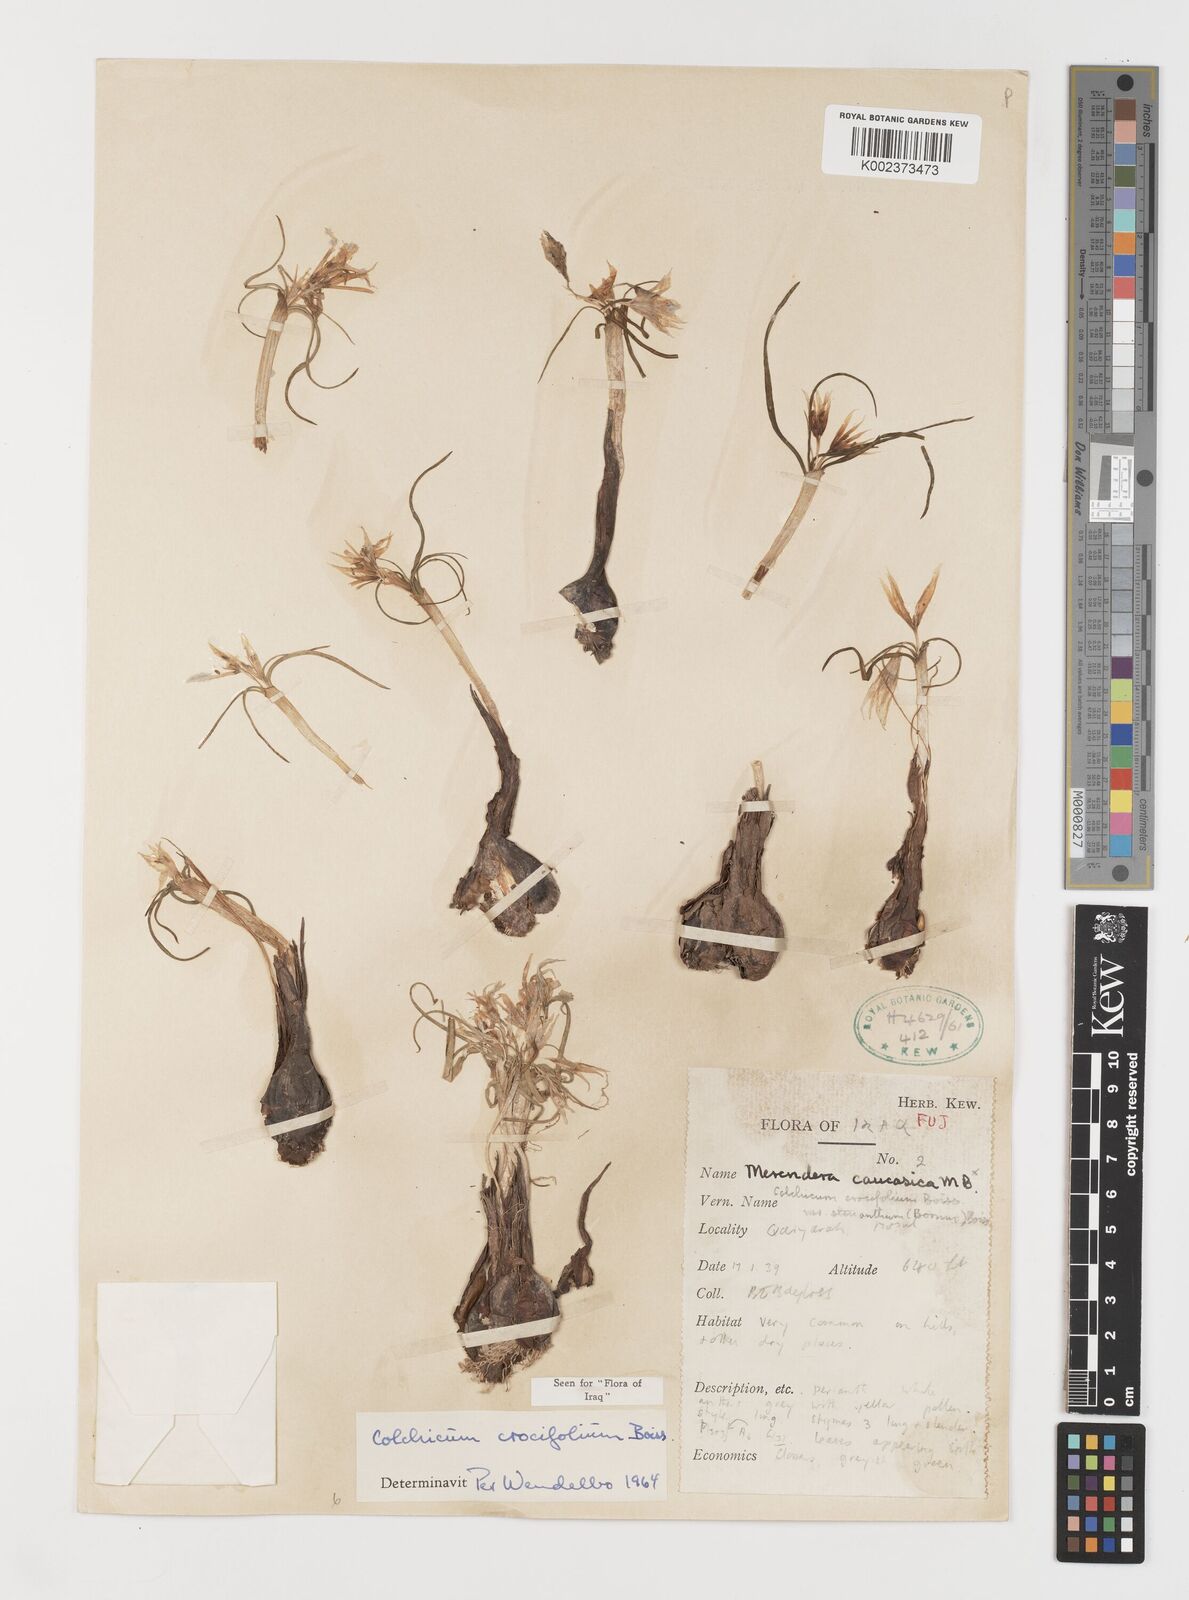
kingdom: Plantae
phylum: Tracheophyta
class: Liliopsida
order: Liliales
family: Colchicaceae
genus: Colchicum
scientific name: Colchicum crocifolium
